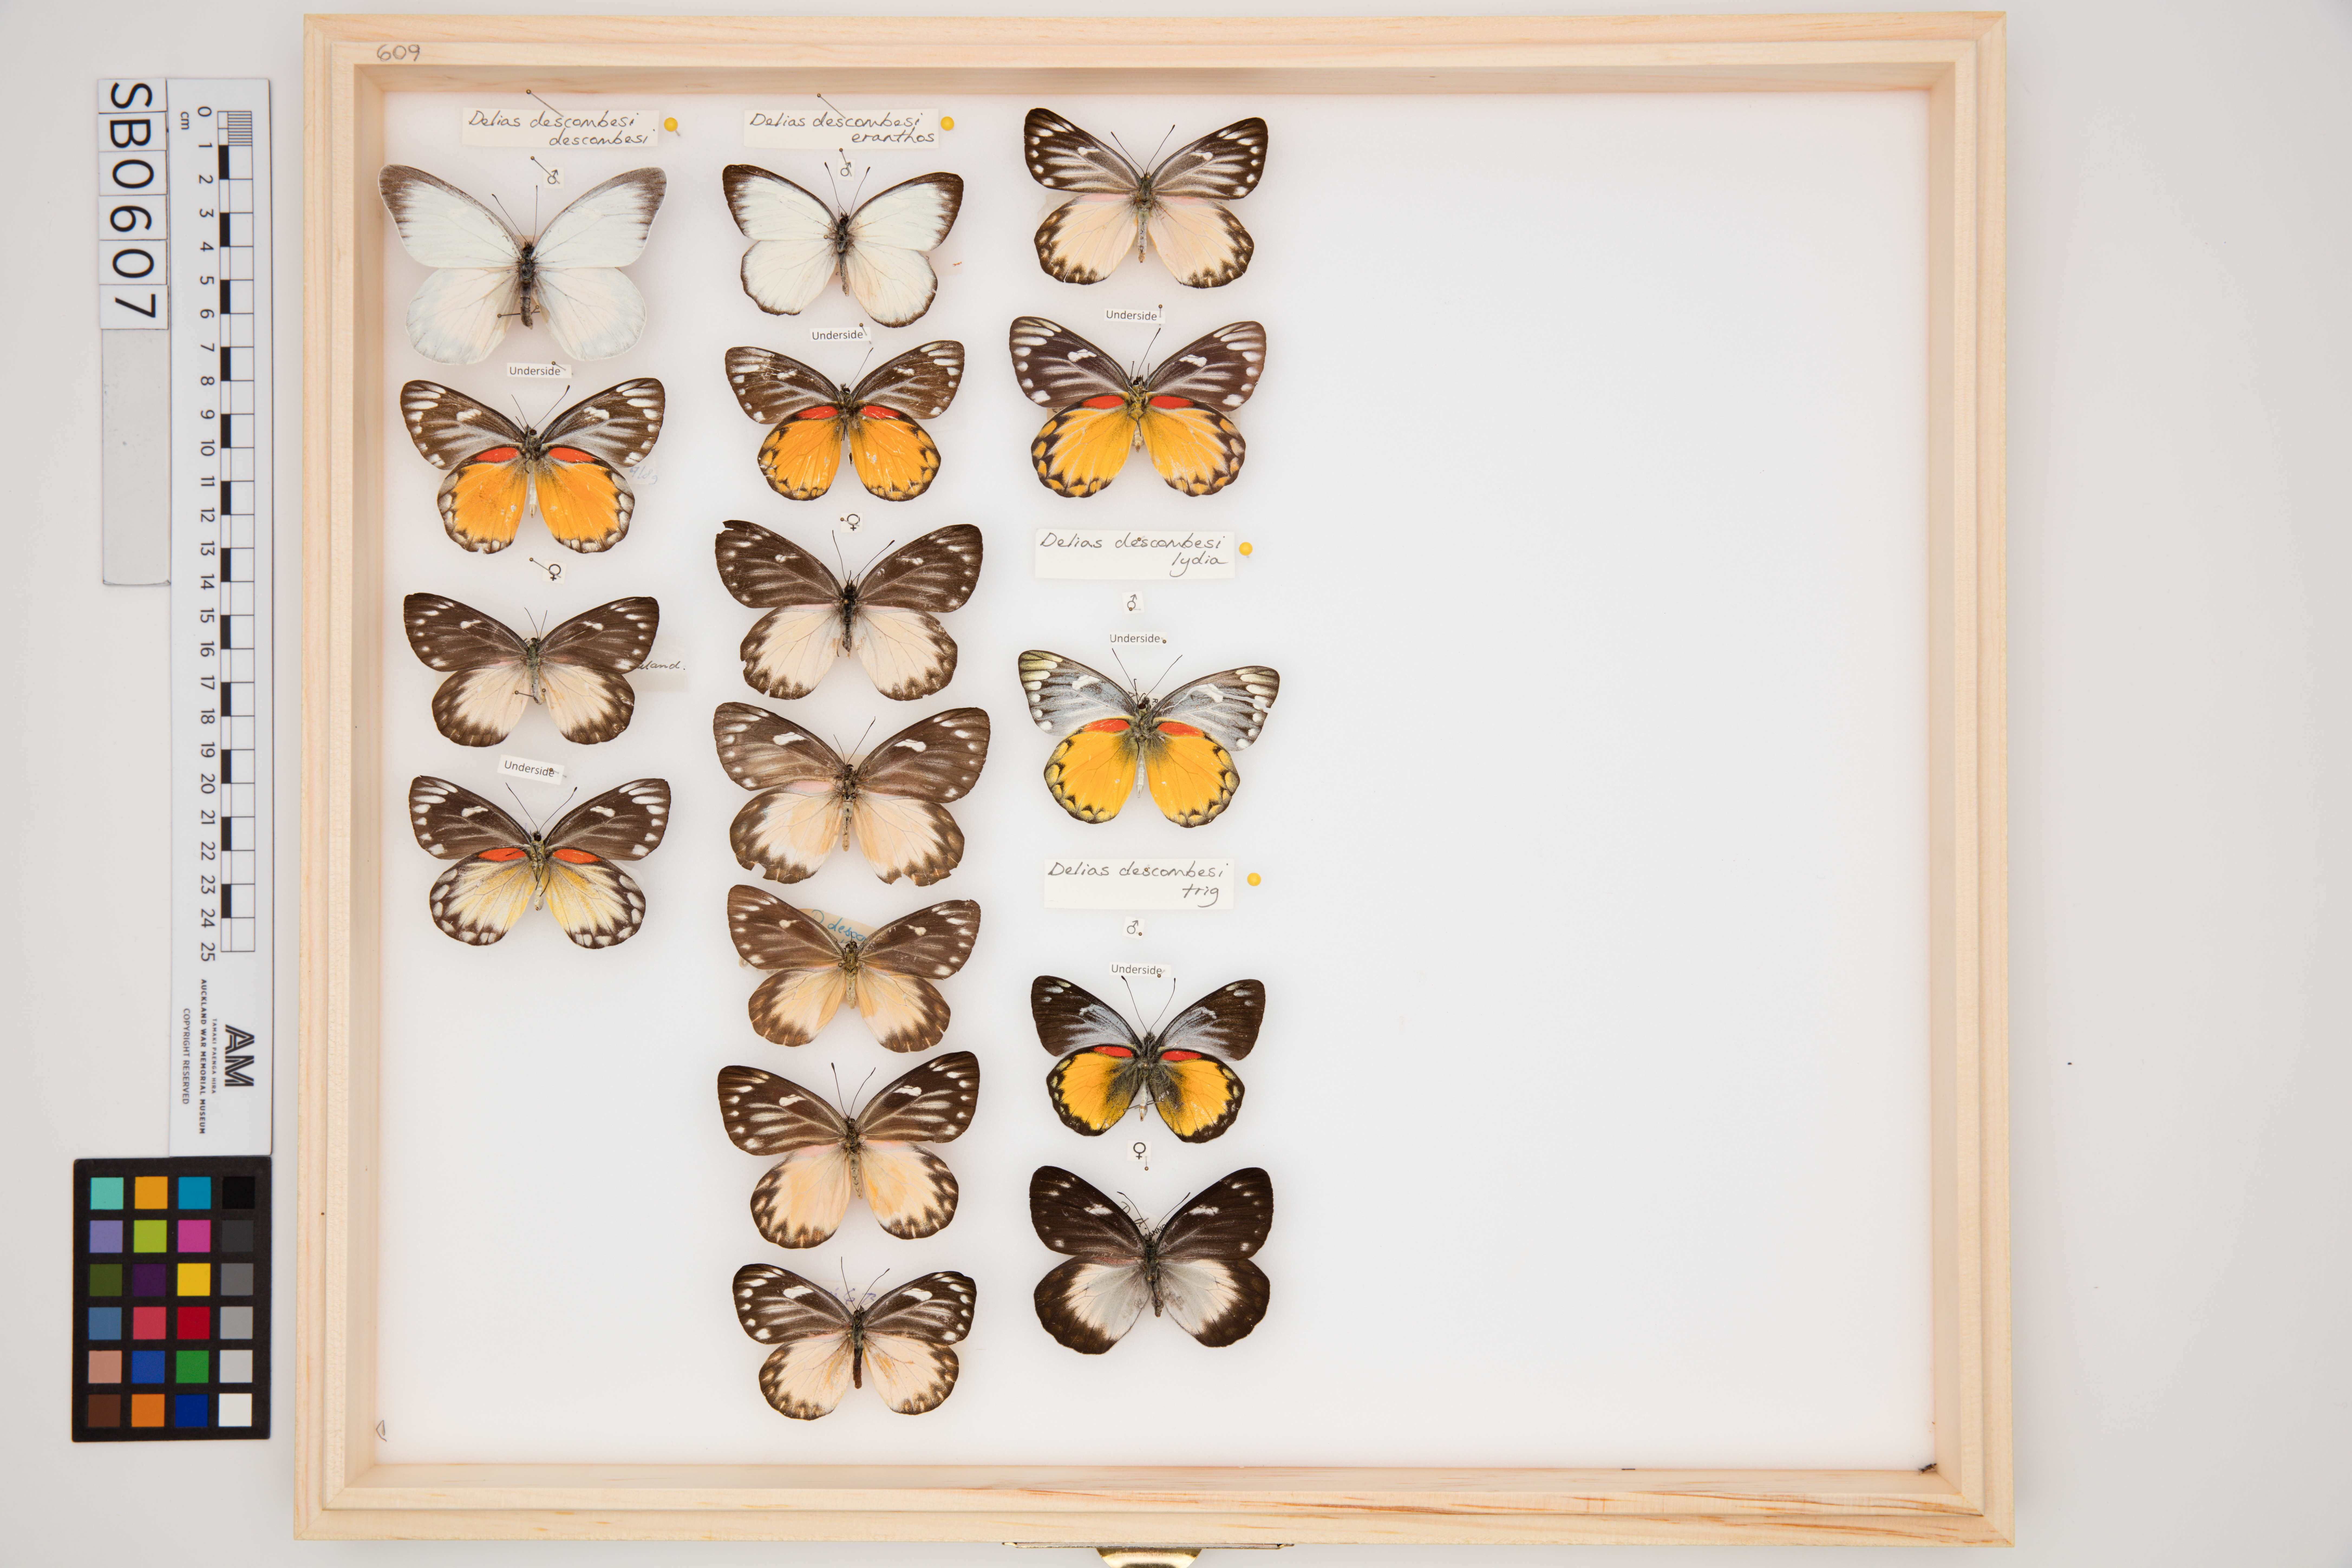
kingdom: Animalia
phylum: Arthropoda
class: Insecta
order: Lepidoptera
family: Pieridae
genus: Delias
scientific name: Delias descombesi
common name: Red-spot jezebel
